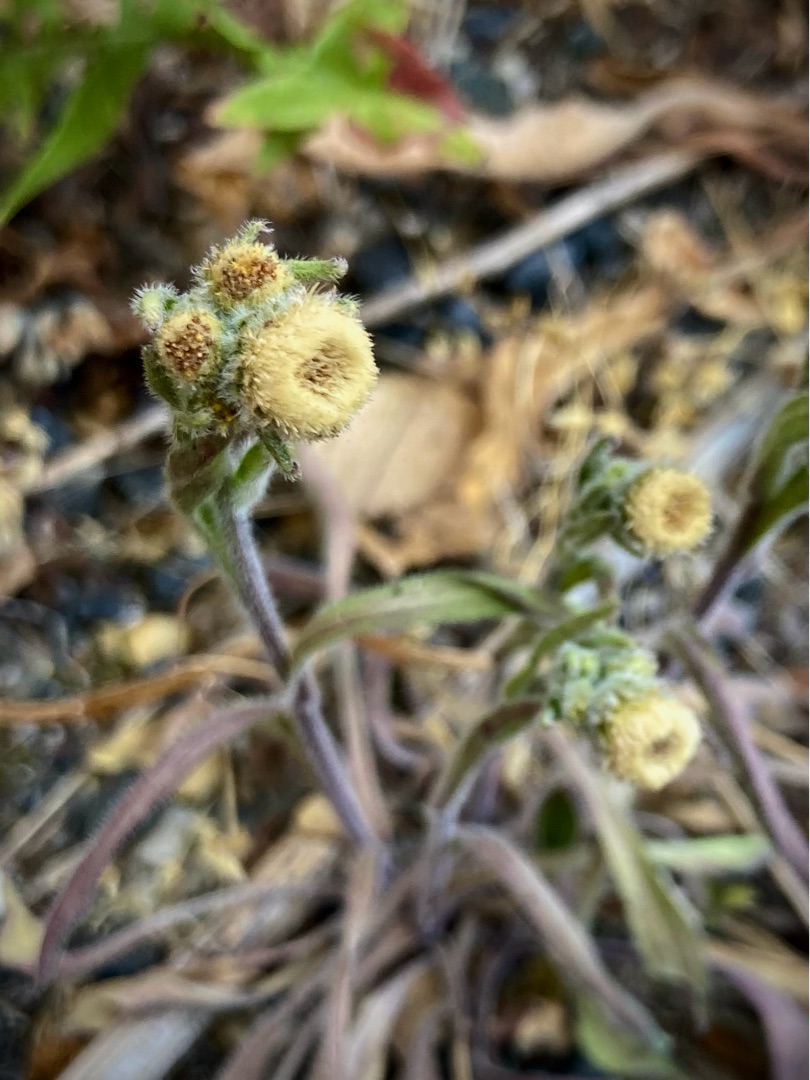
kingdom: Plantae
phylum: Tracheophyta
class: Magnoliopsida
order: Asterales
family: Asteraceae
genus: Erigeron
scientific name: Erigeron acris
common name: Bitter bakkestjerne
